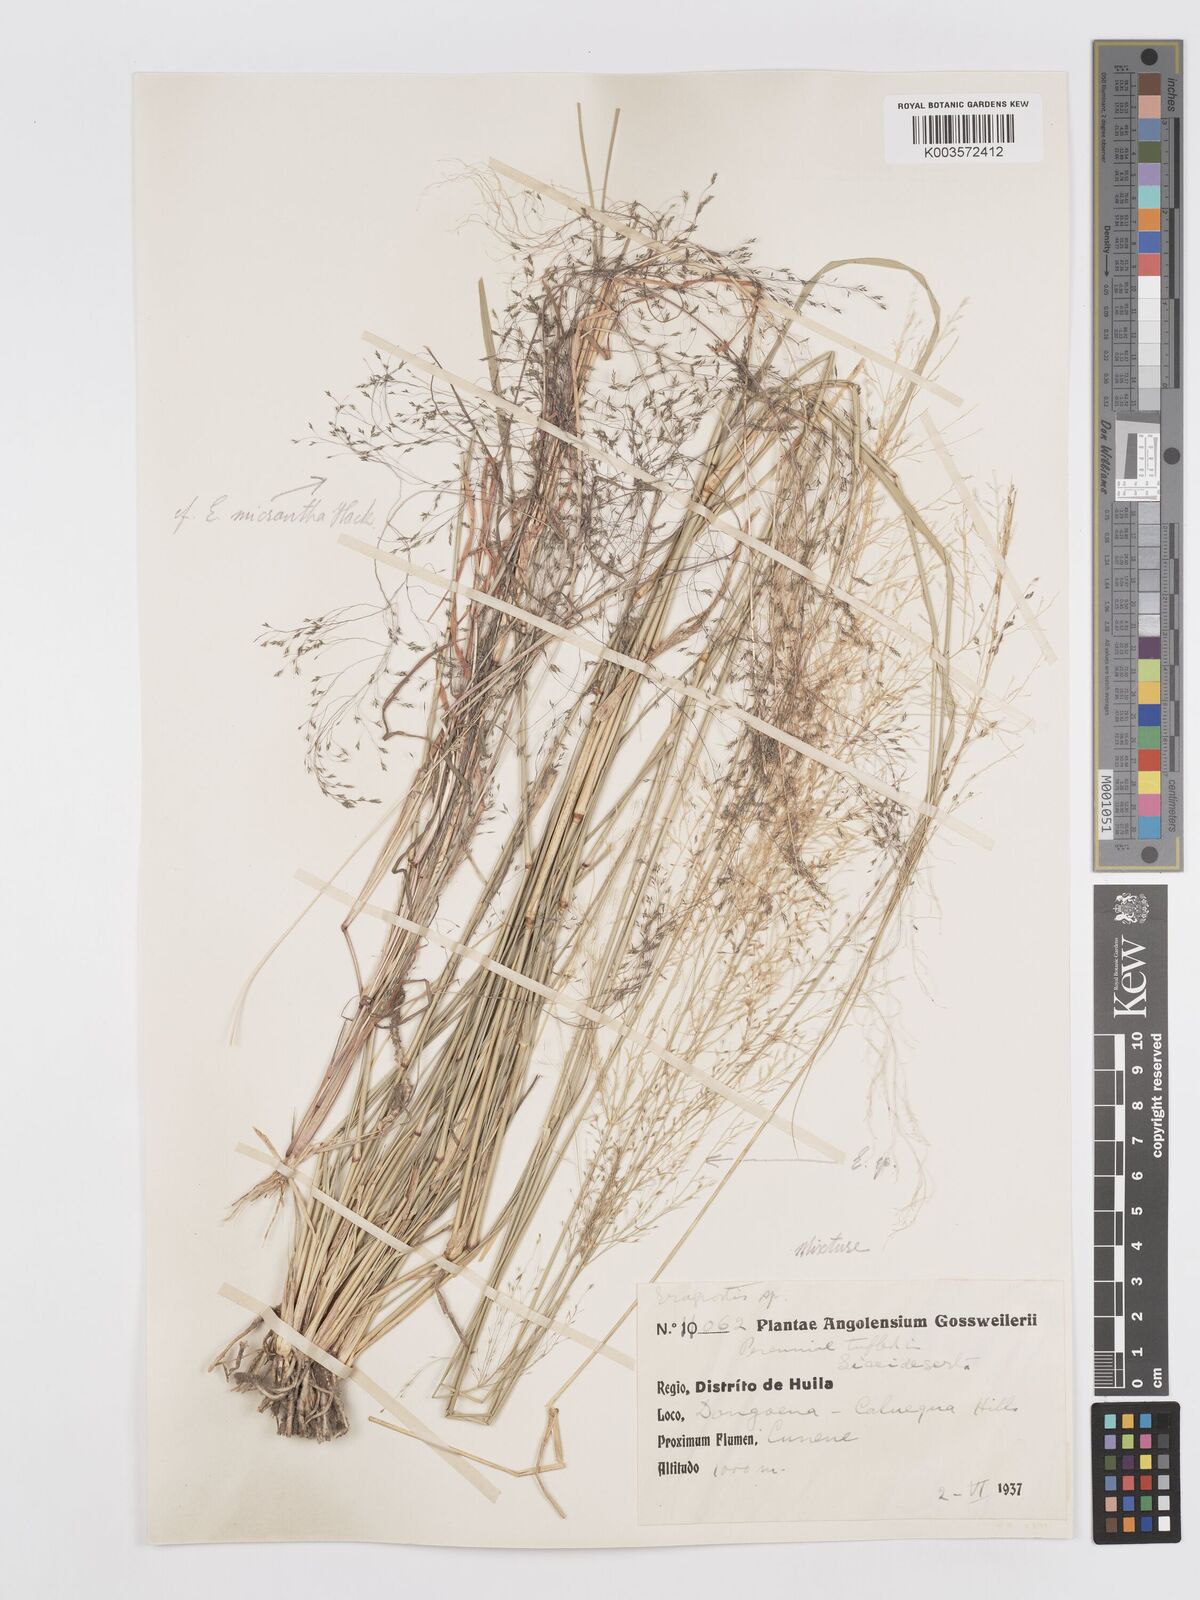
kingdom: Plantae
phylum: Tracheophyta
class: Liliopsida
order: Poales
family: Poaceae
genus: Eragrostis
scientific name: Eragrostis
